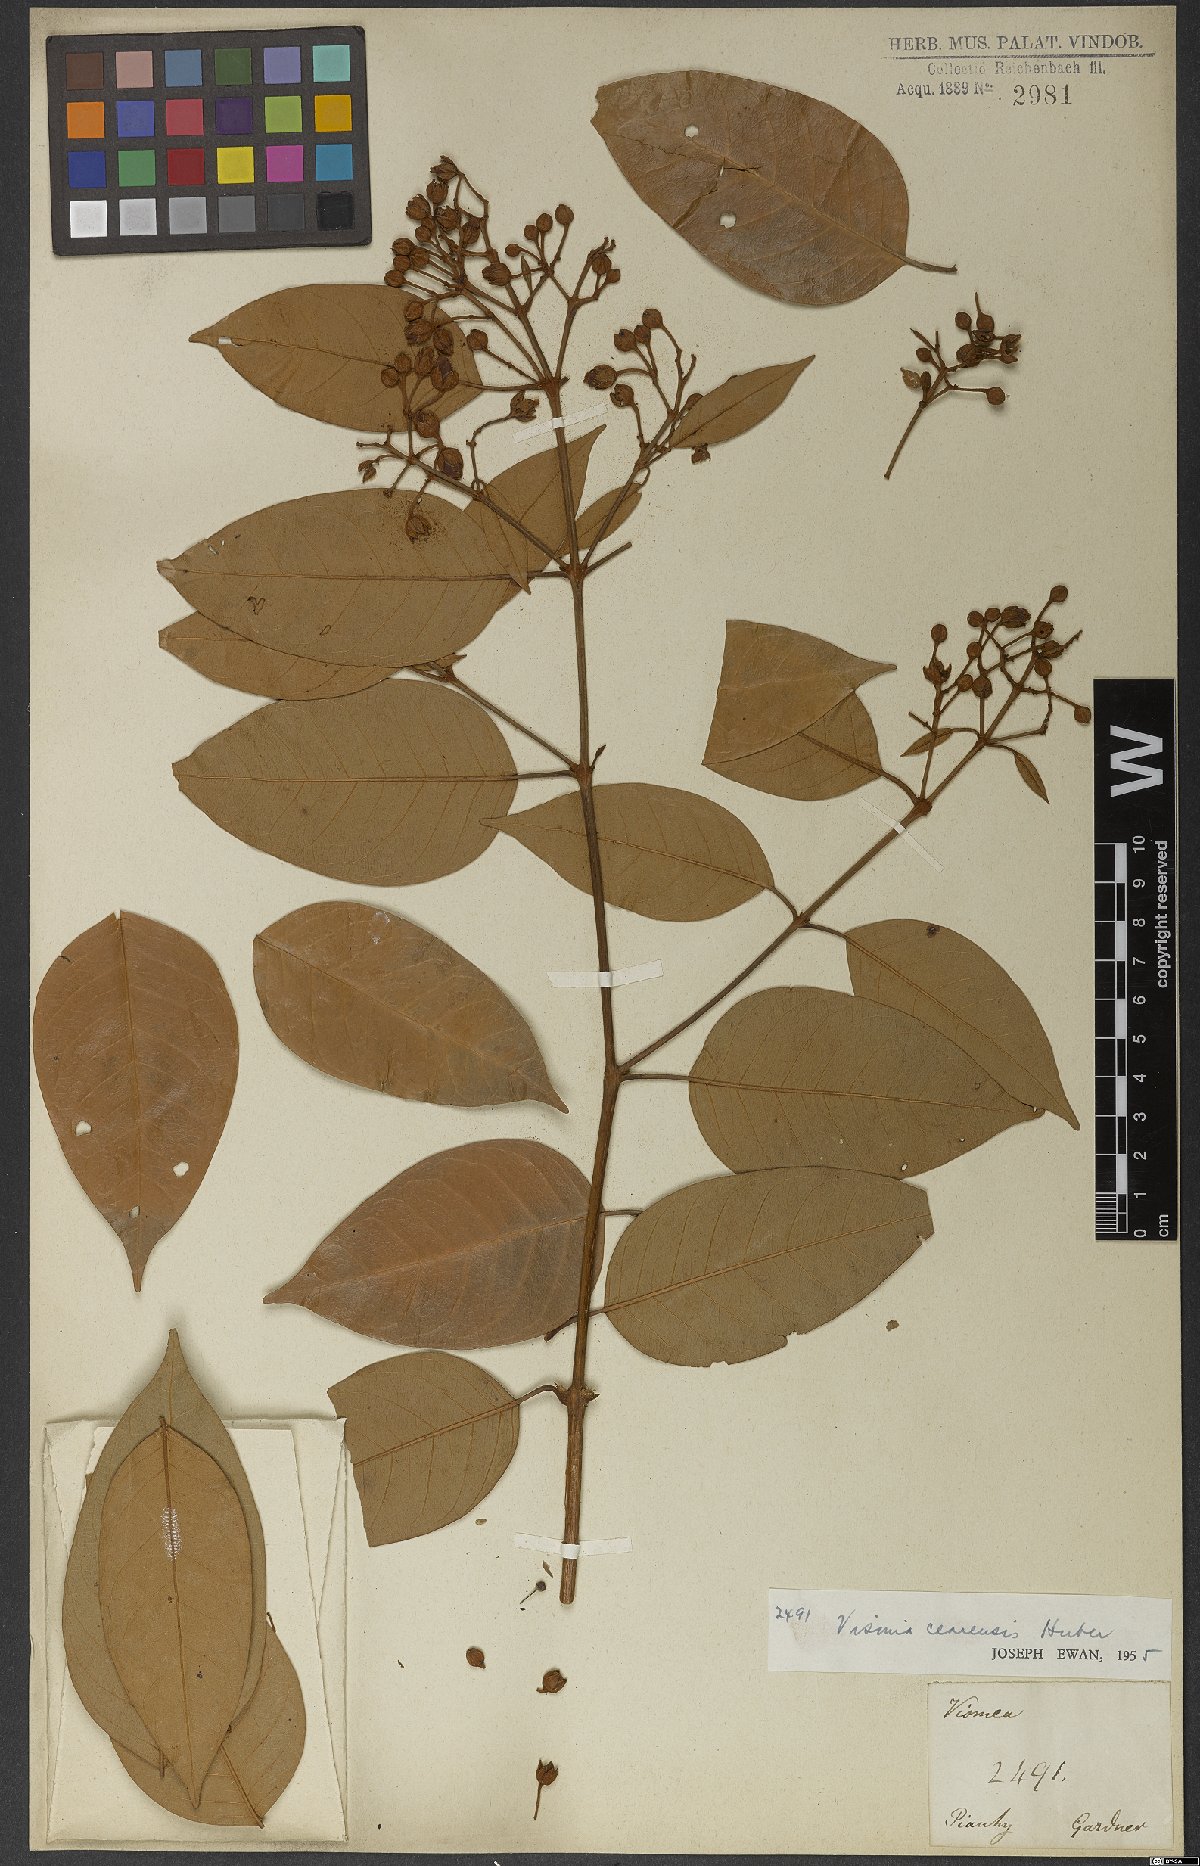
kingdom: Plantae
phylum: Tracheophyta
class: Magnoliopsida
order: Malpighiales
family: Hypericaceae
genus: Vismia
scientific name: Vismia guianensis
